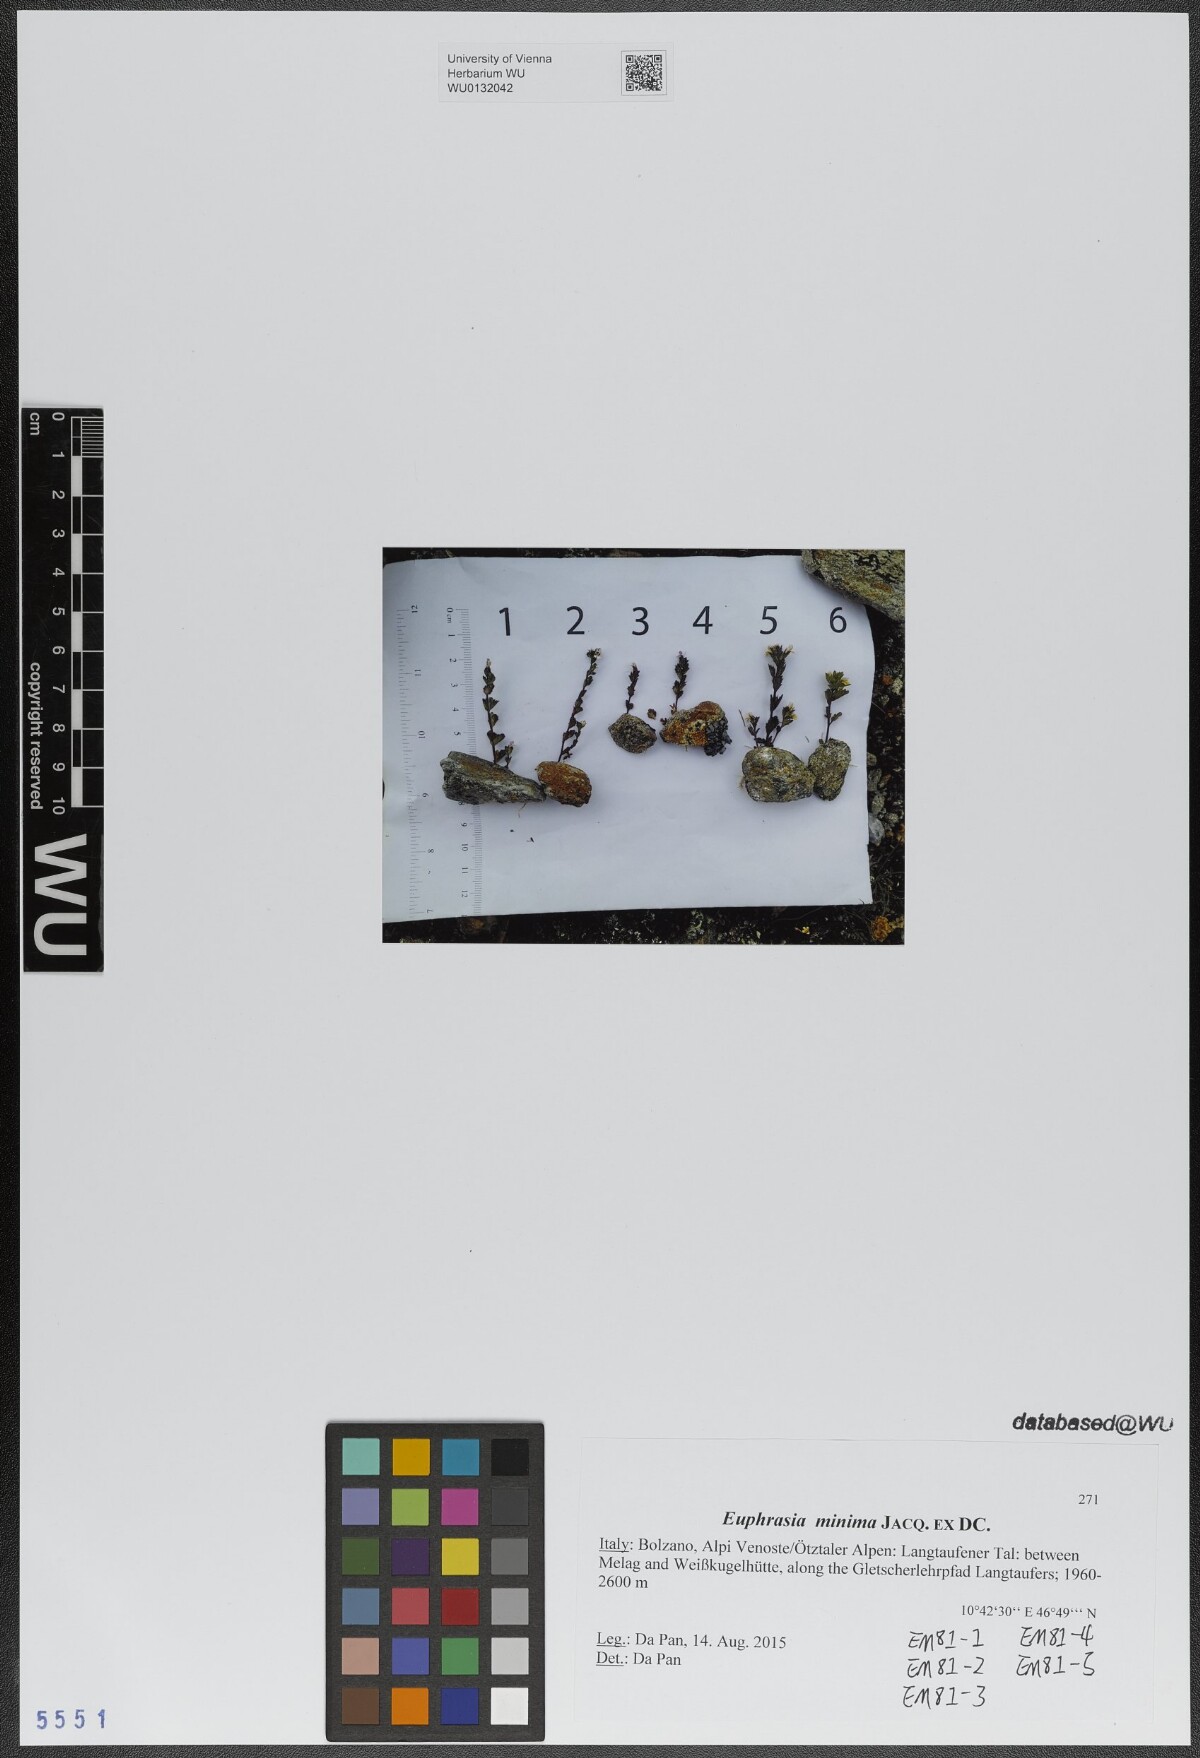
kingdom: Plantae
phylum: Tracheophyta
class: Magnoliopsida
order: Lamiales
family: Orobanchaceae
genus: Euphrasia
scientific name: Euphrasia minima
